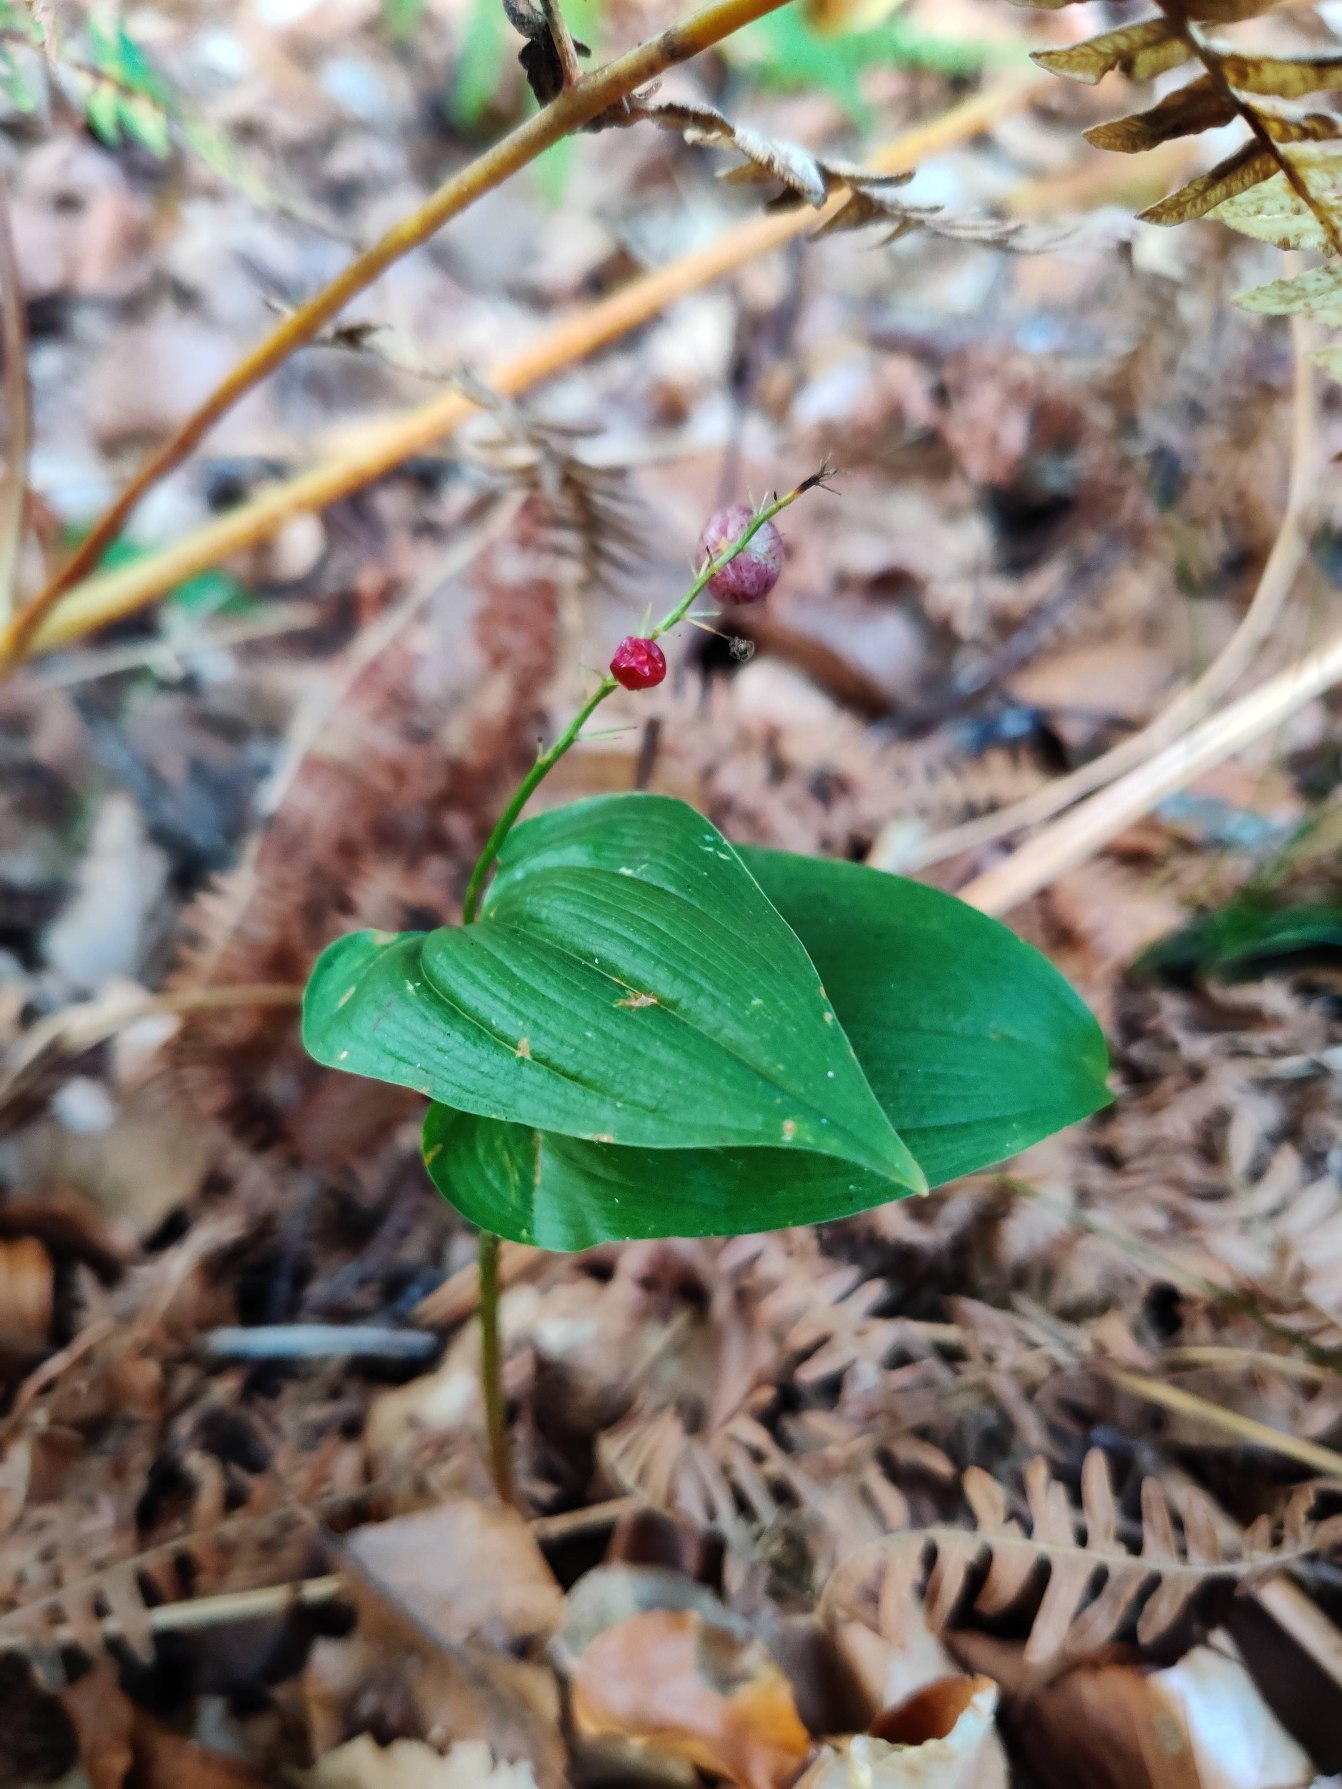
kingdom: Plantae
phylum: Tracheophyta
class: Liliopsida
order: Asparagales
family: Asparagaceae
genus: Maianthemum
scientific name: Maianthemum bifolium
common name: Majblomst
